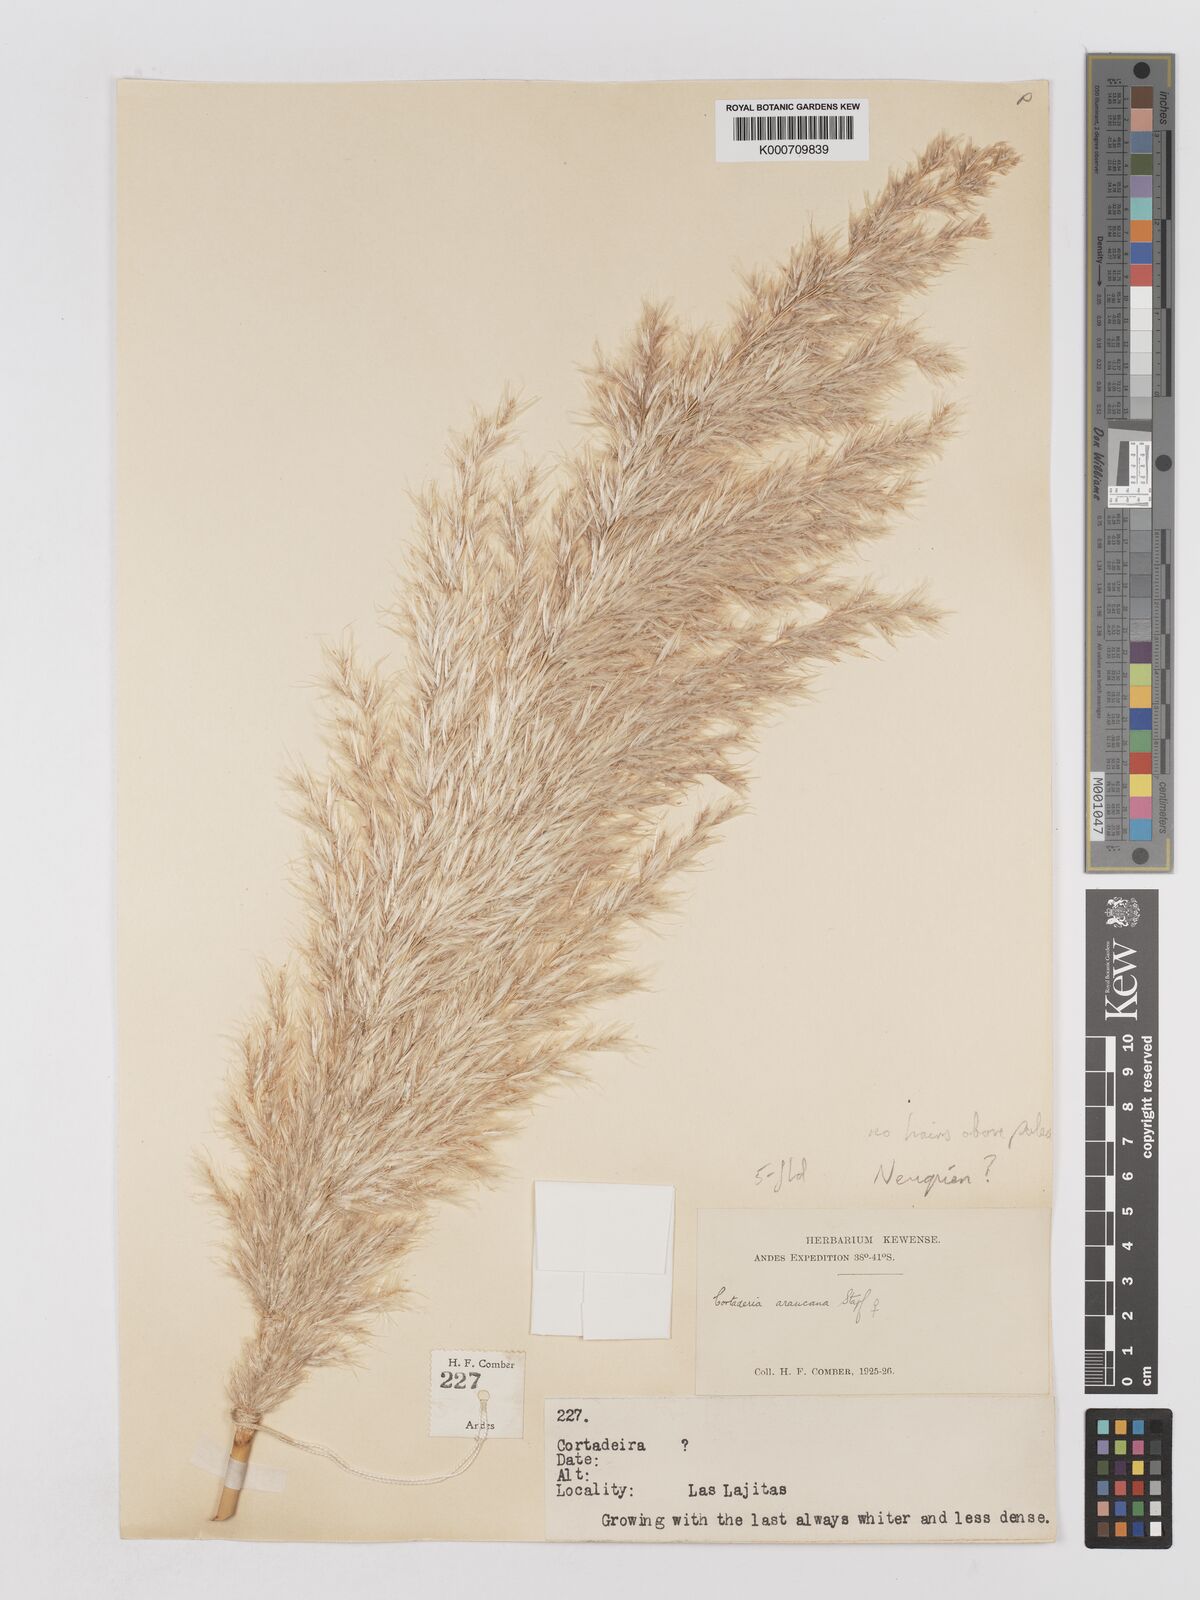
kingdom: Plantae
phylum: Tracheophyta
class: Liliopsida
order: Poales
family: Poaceae
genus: Cortaderia
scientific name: Cortaderia araucana
